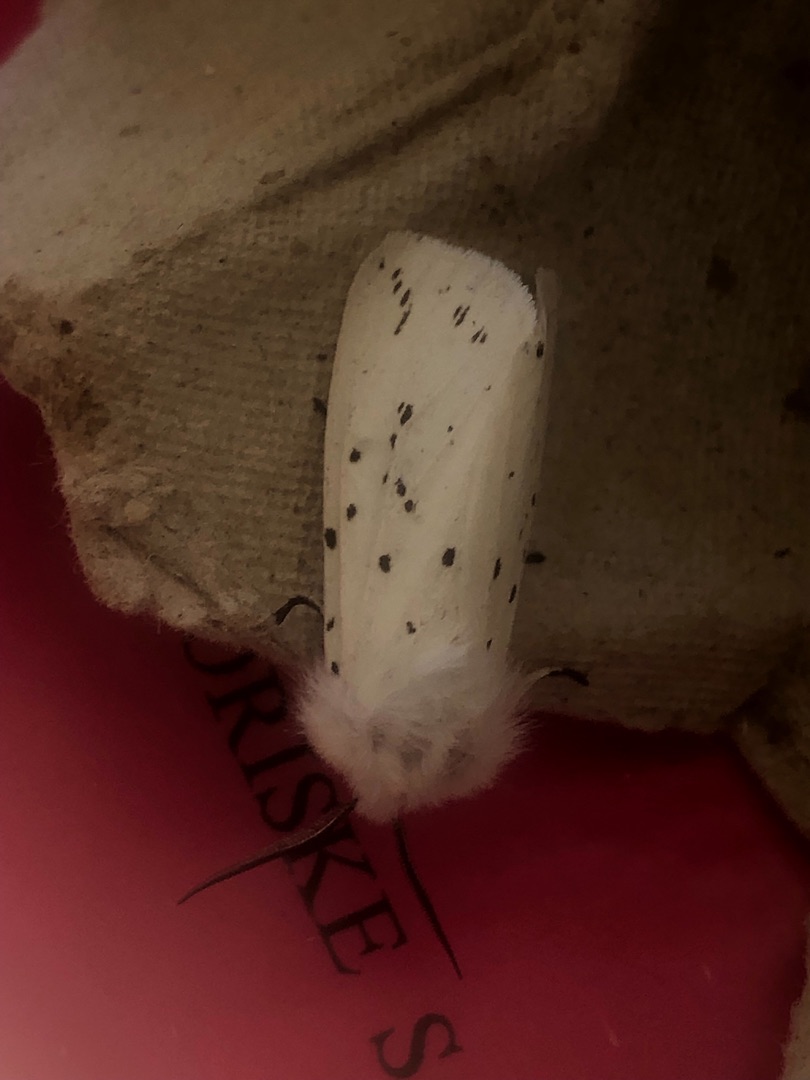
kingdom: Animalia
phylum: Arthropoda
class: Insecta
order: Lepidoptera
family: Erebidae
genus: Spilosoma
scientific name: Spilosoma lubricipeda
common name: Almindelig tigerspinder
